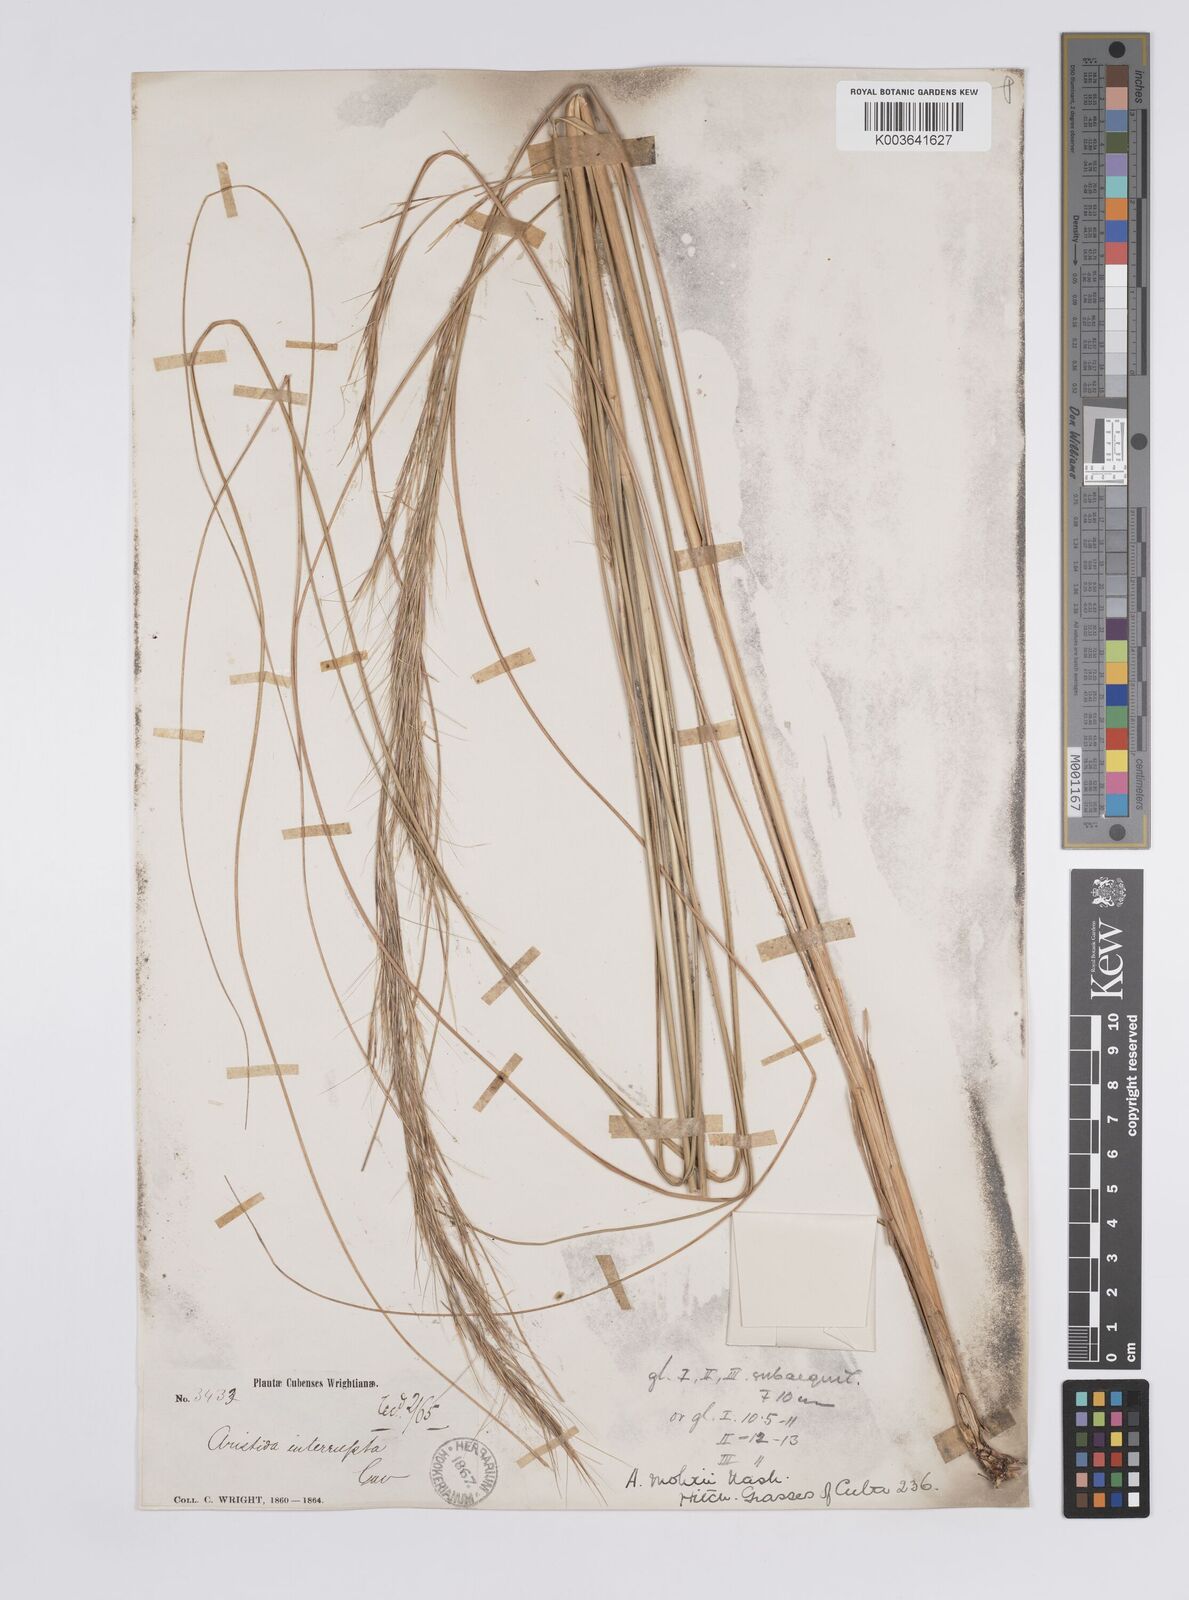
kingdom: Plantae
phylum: Tracheophyta
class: Liliopsida
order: Poales
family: Poaceae
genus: Aristida
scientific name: Aristida neglecta
